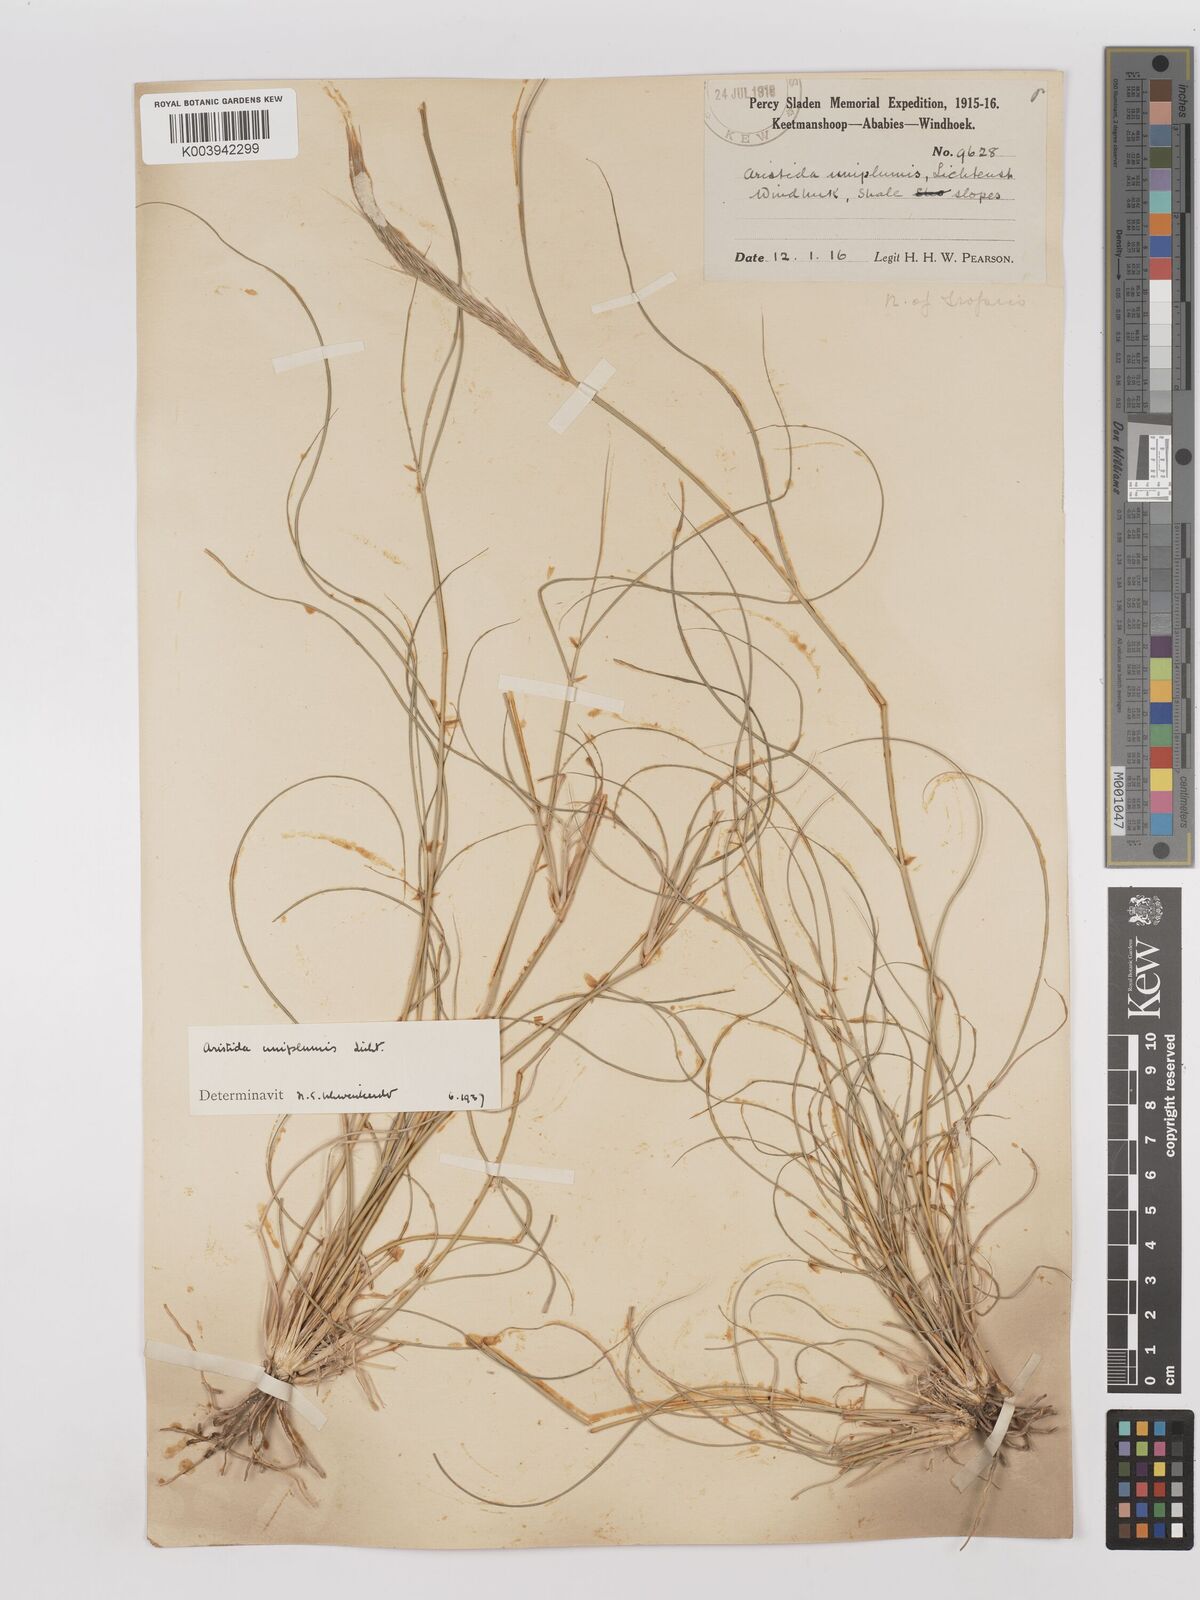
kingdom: Plantae
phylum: Tracheophyta
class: Liliopsida
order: Poales
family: Poaceae
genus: Stipagrostis
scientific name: Stipagrostis uniplumis
